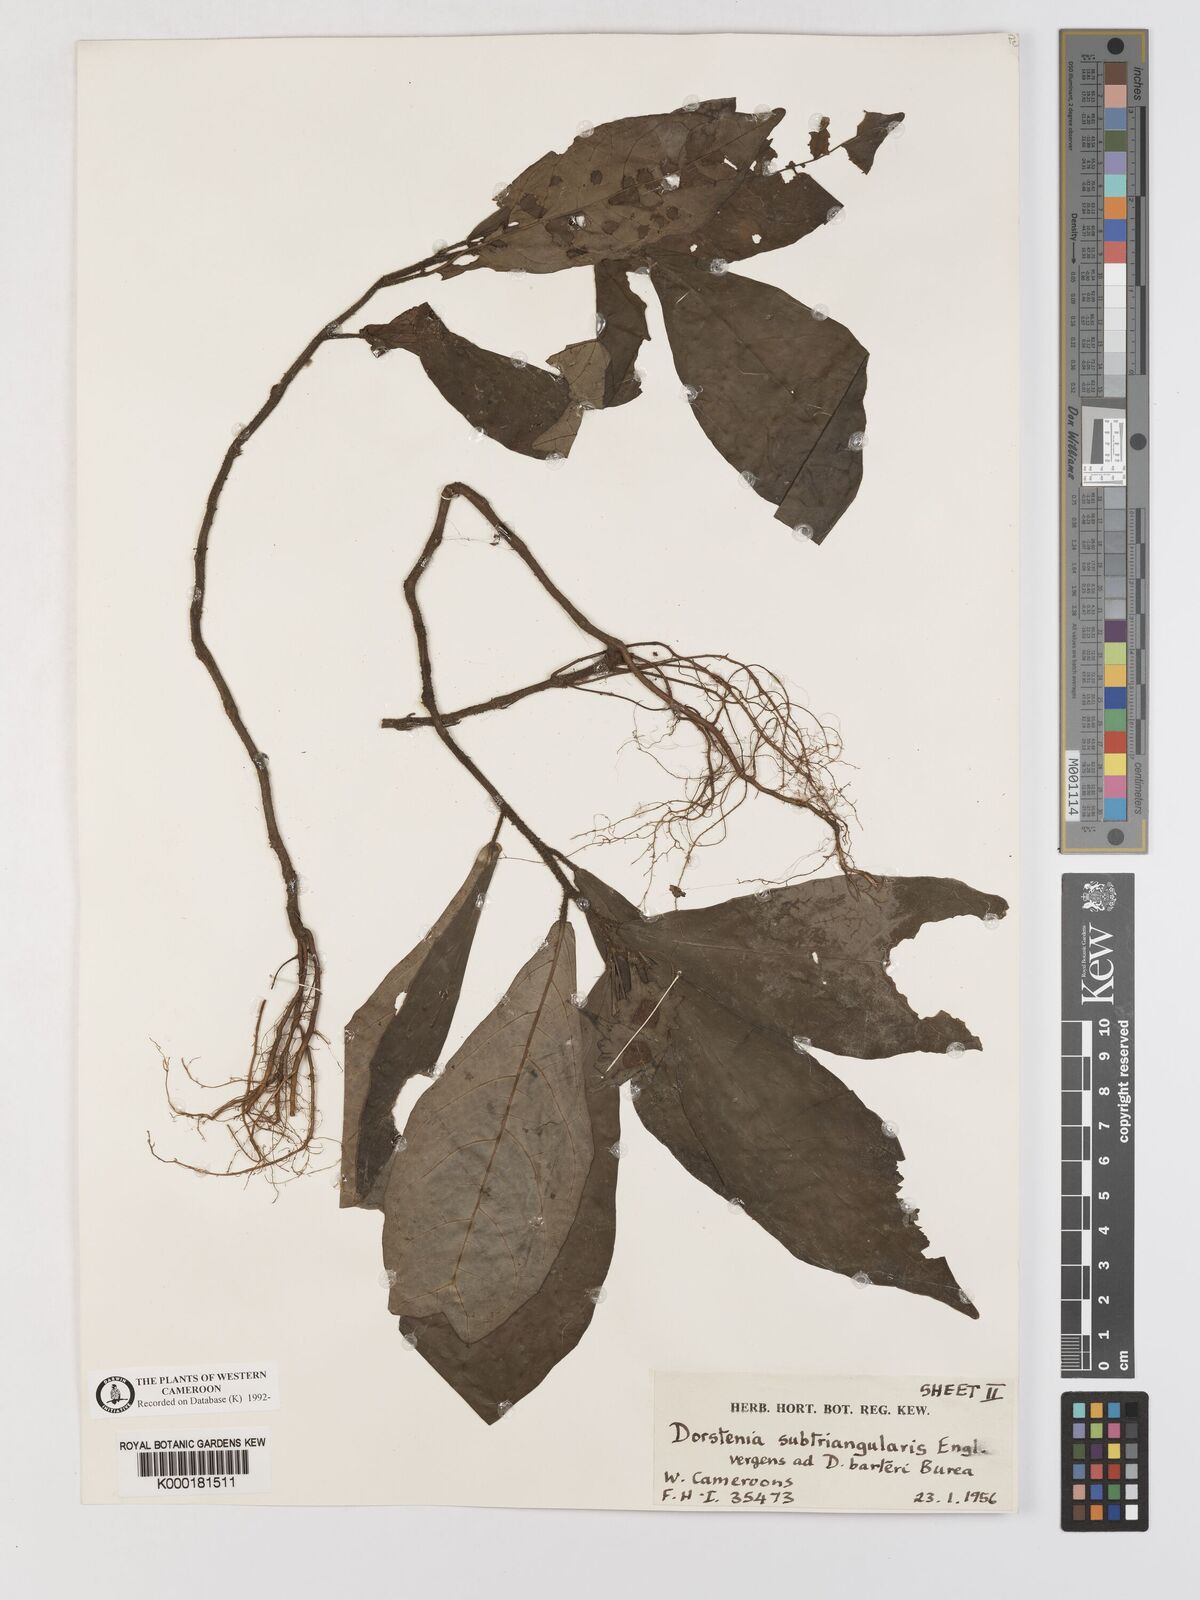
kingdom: Plantae
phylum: Tracheophyta
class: Magnoliopsida
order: Rosales
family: Moraceae
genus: Dorstenia
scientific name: Dorstenia barteri
